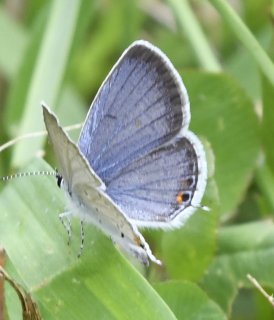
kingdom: Animalia
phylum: Arthropoda
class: Insecta
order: Lepidoptera
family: Lycaenidae
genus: Elkalyce
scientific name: Elkalyce comyntas
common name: Eastern Tailed-Blue
